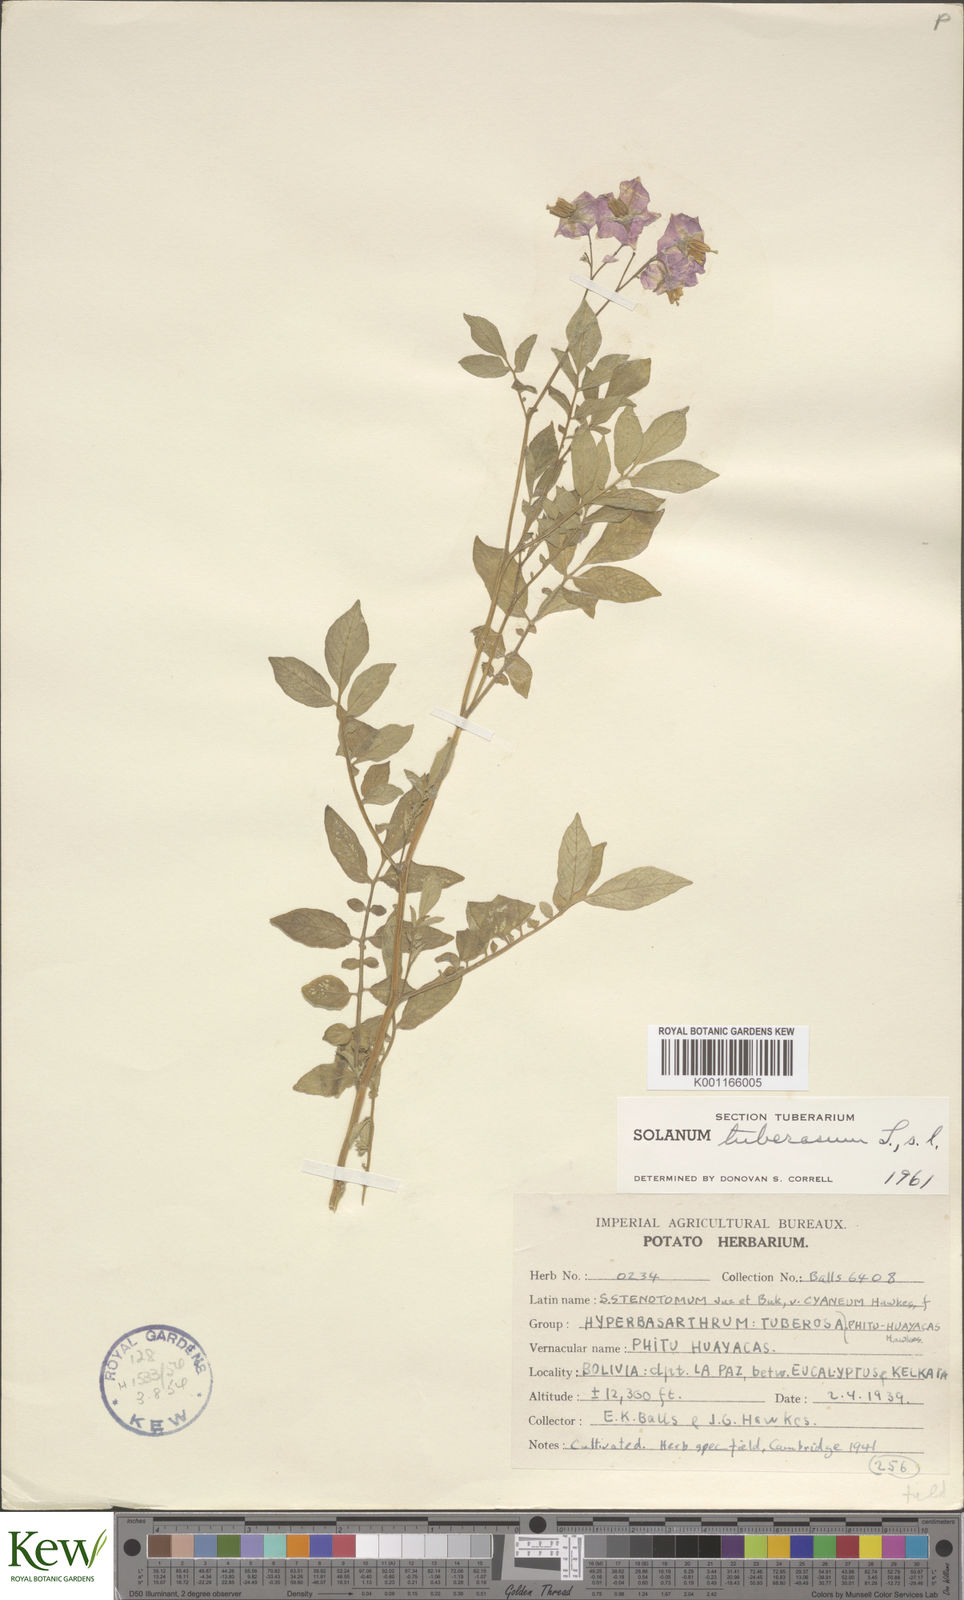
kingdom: Plantae
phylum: Tracheophyta
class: Magnoliopsida
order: Solanales
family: Solanaceae
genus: Solanum
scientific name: Solanum tuberosum
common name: Potato
